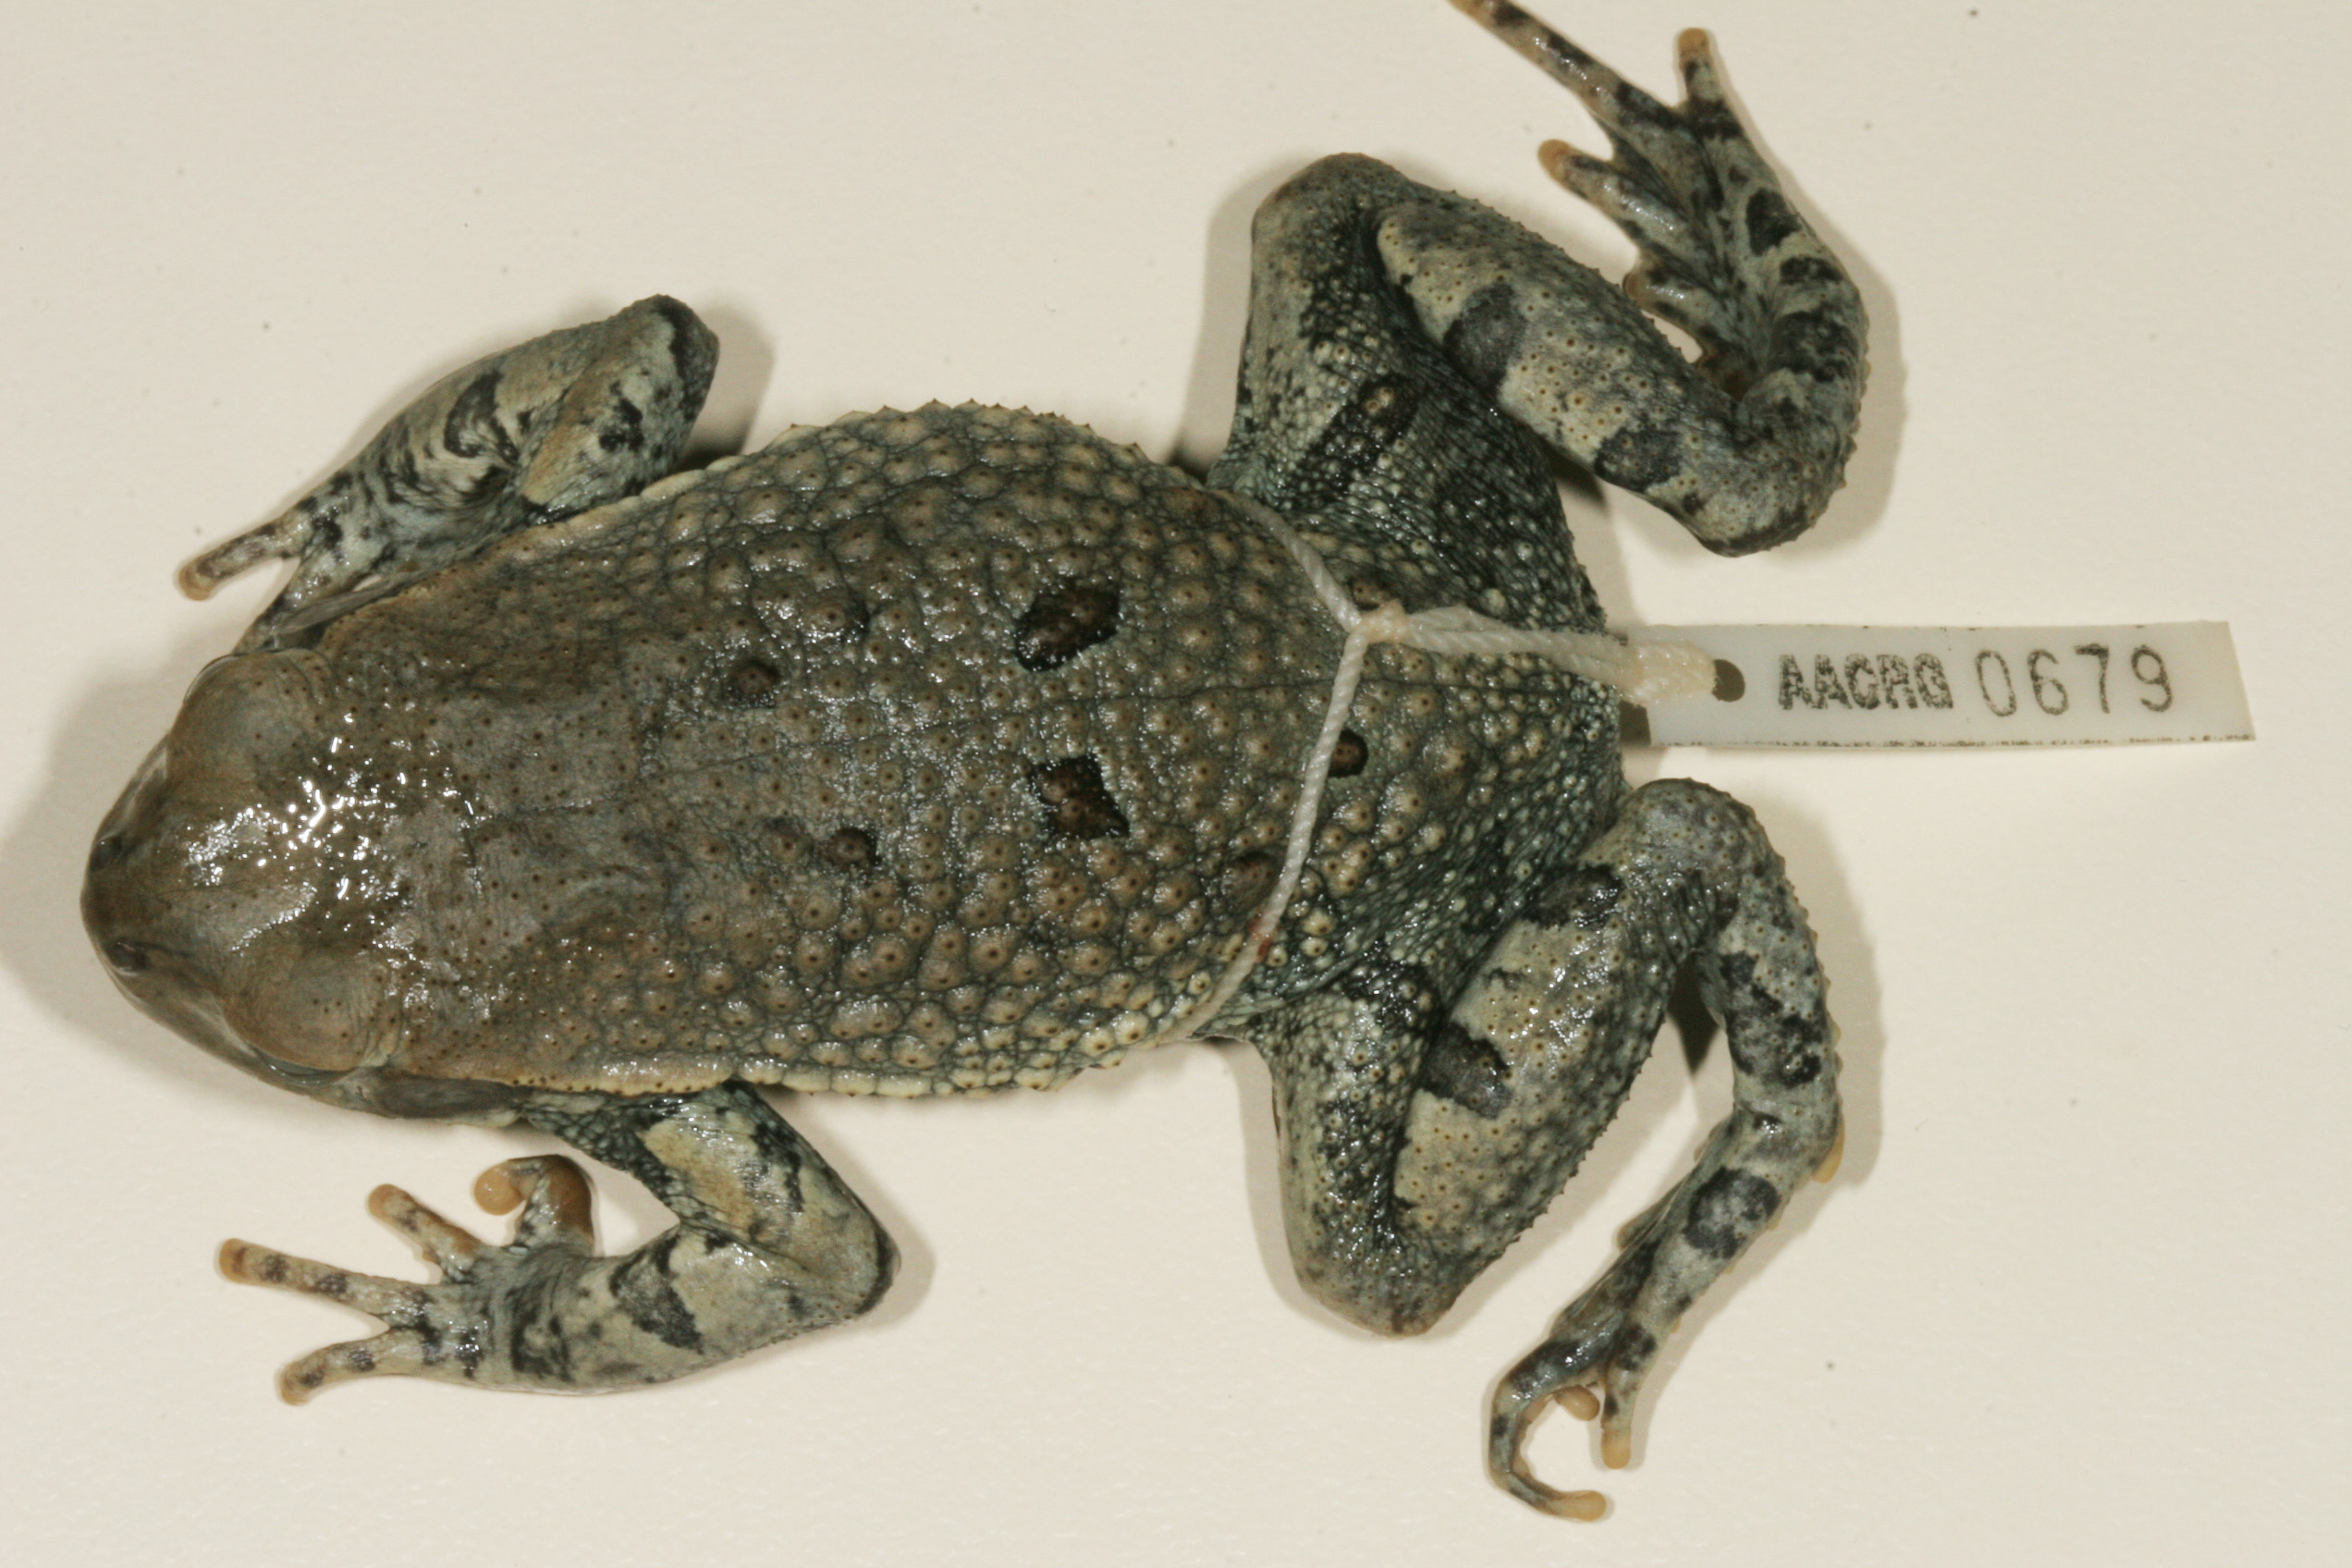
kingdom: Animalia
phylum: Chordata
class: Amphibia
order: Anura
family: Bufonidae
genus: Schismaderma
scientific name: Schismaderma carens
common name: African split-skin toad
